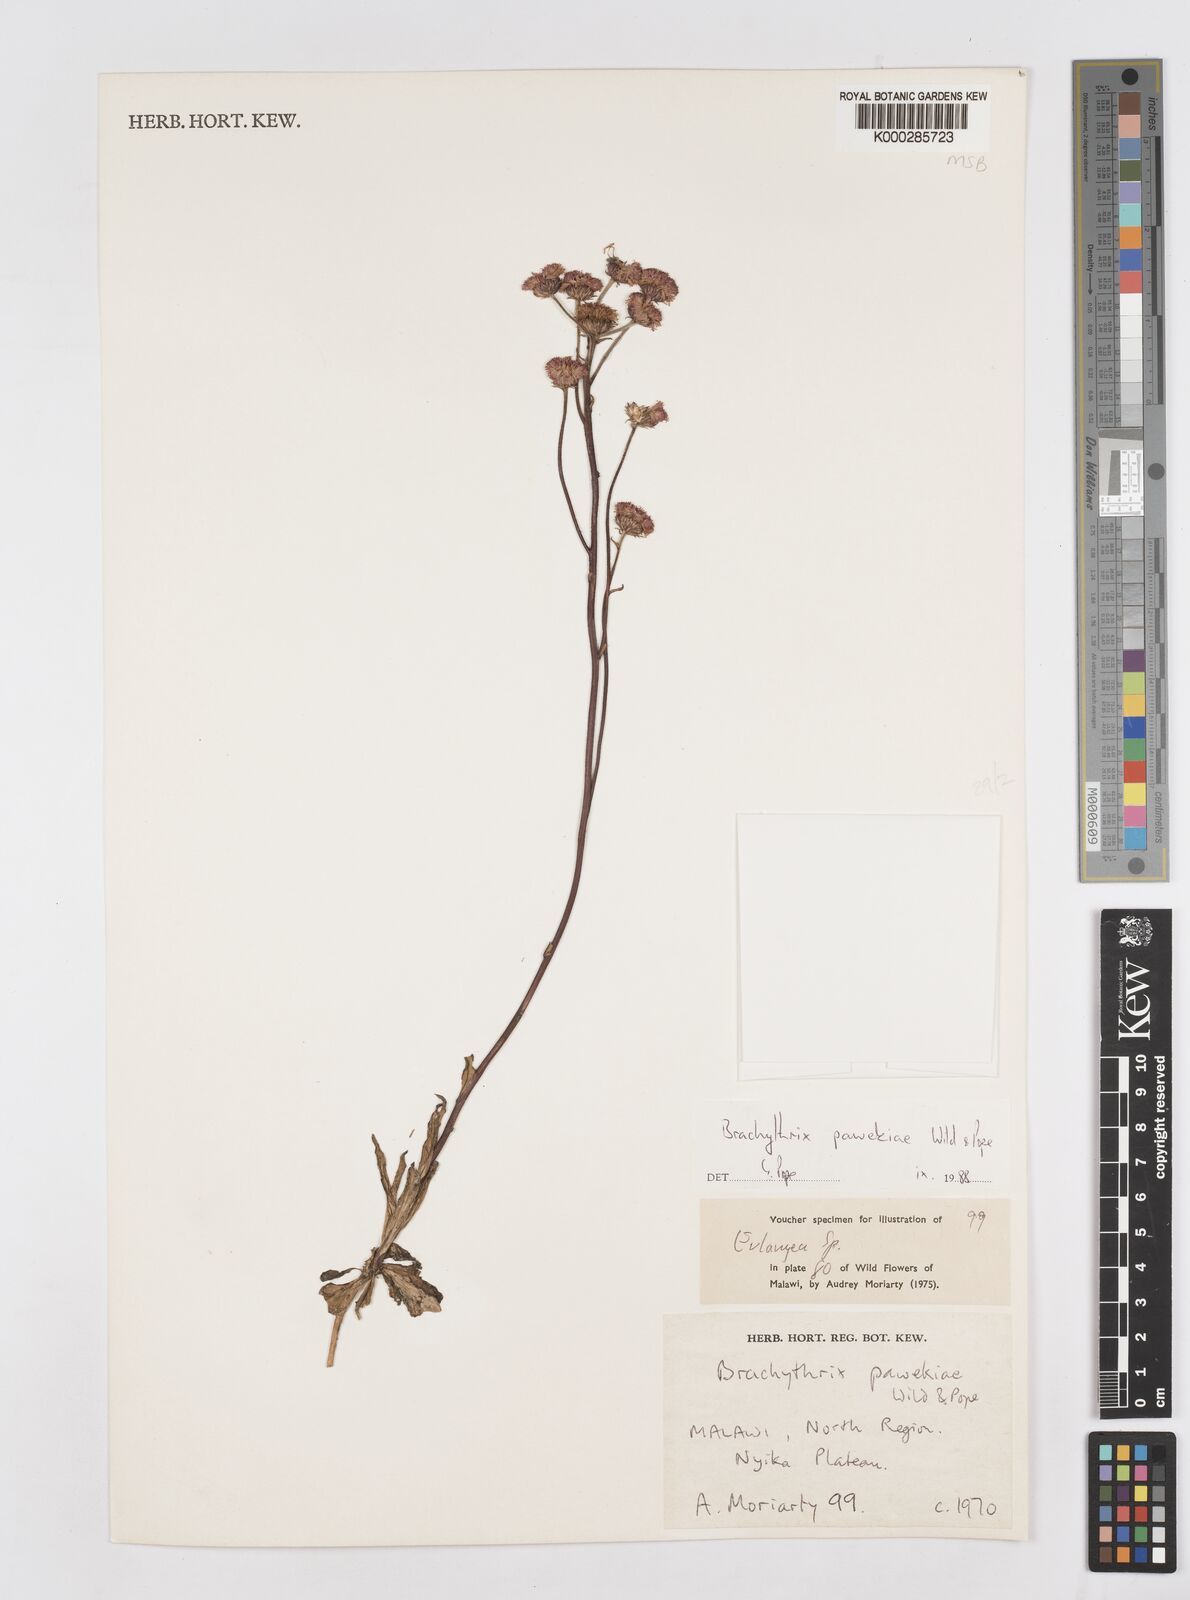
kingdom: Plantae
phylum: Tracheophyta
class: Magnoliopsida
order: Asterales
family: Asteraceae
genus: Brachythrix
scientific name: Brachythrix pawekiae
